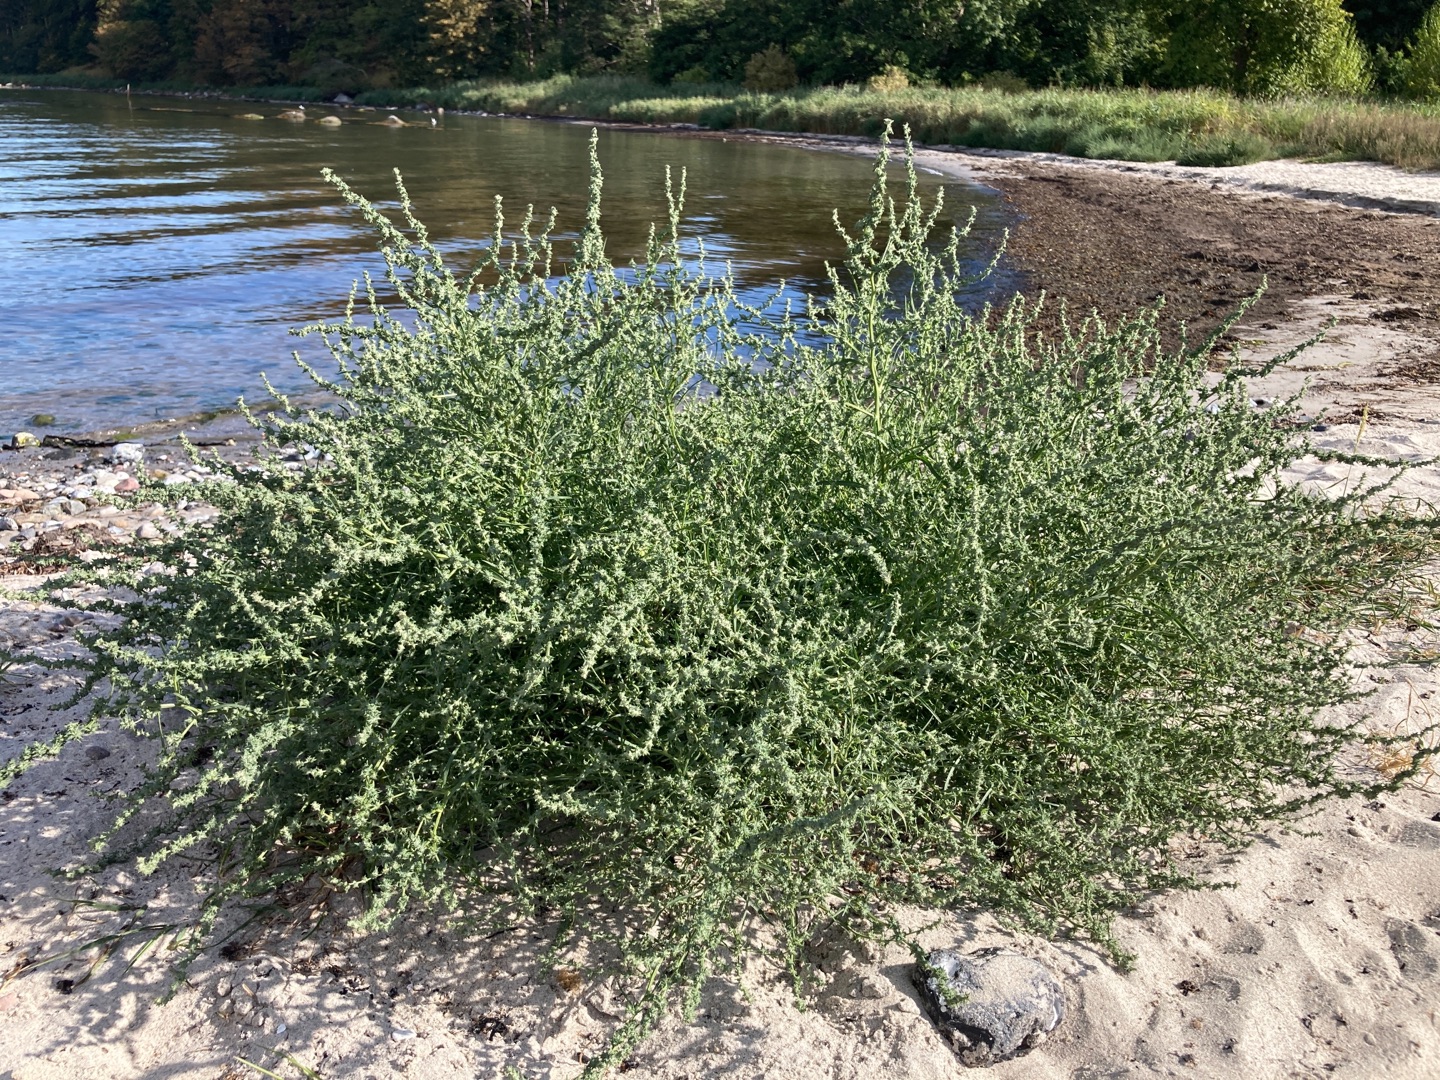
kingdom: Plantae
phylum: Tracheophyta
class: Magnoliopsida
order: Caryophyllales
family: Amaranthaceae
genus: Atriplex
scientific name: Atriplex littoralis
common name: Strand-mælde
